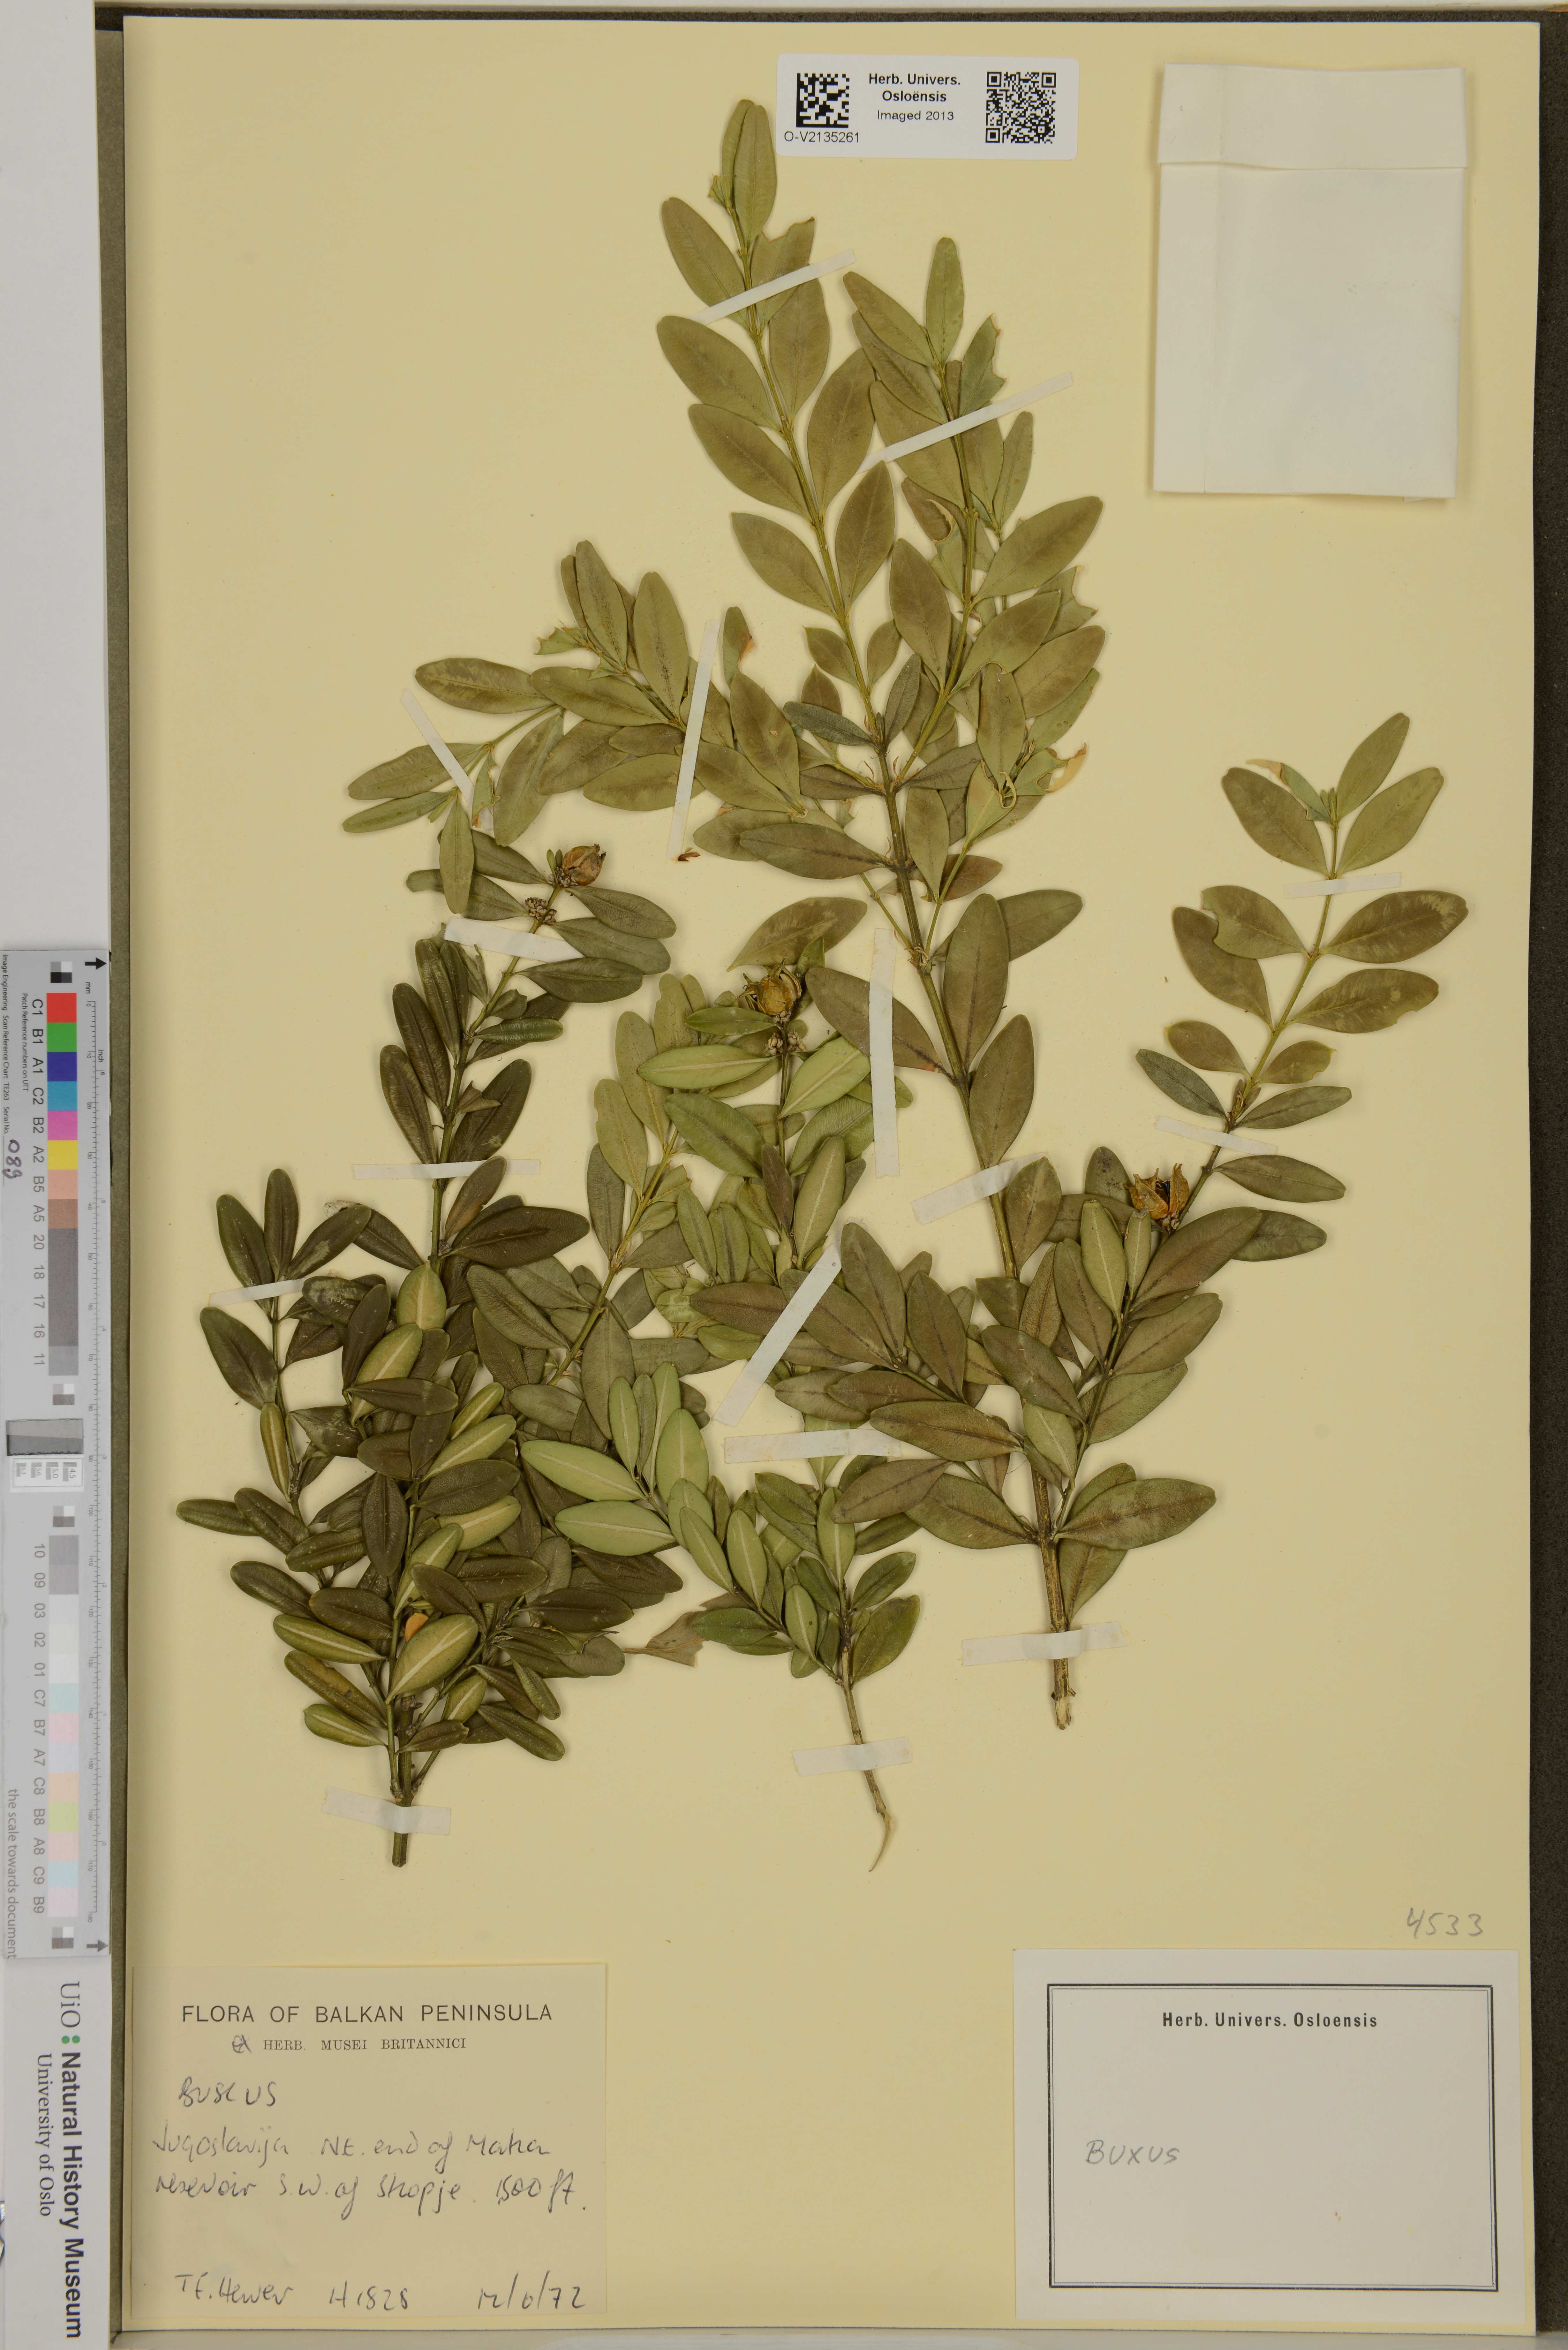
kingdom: Plantae
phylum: Tracheophyta
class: Magnoliopsida
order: Buxales
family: Buxaceae
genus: Buxus
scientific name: Buxus
